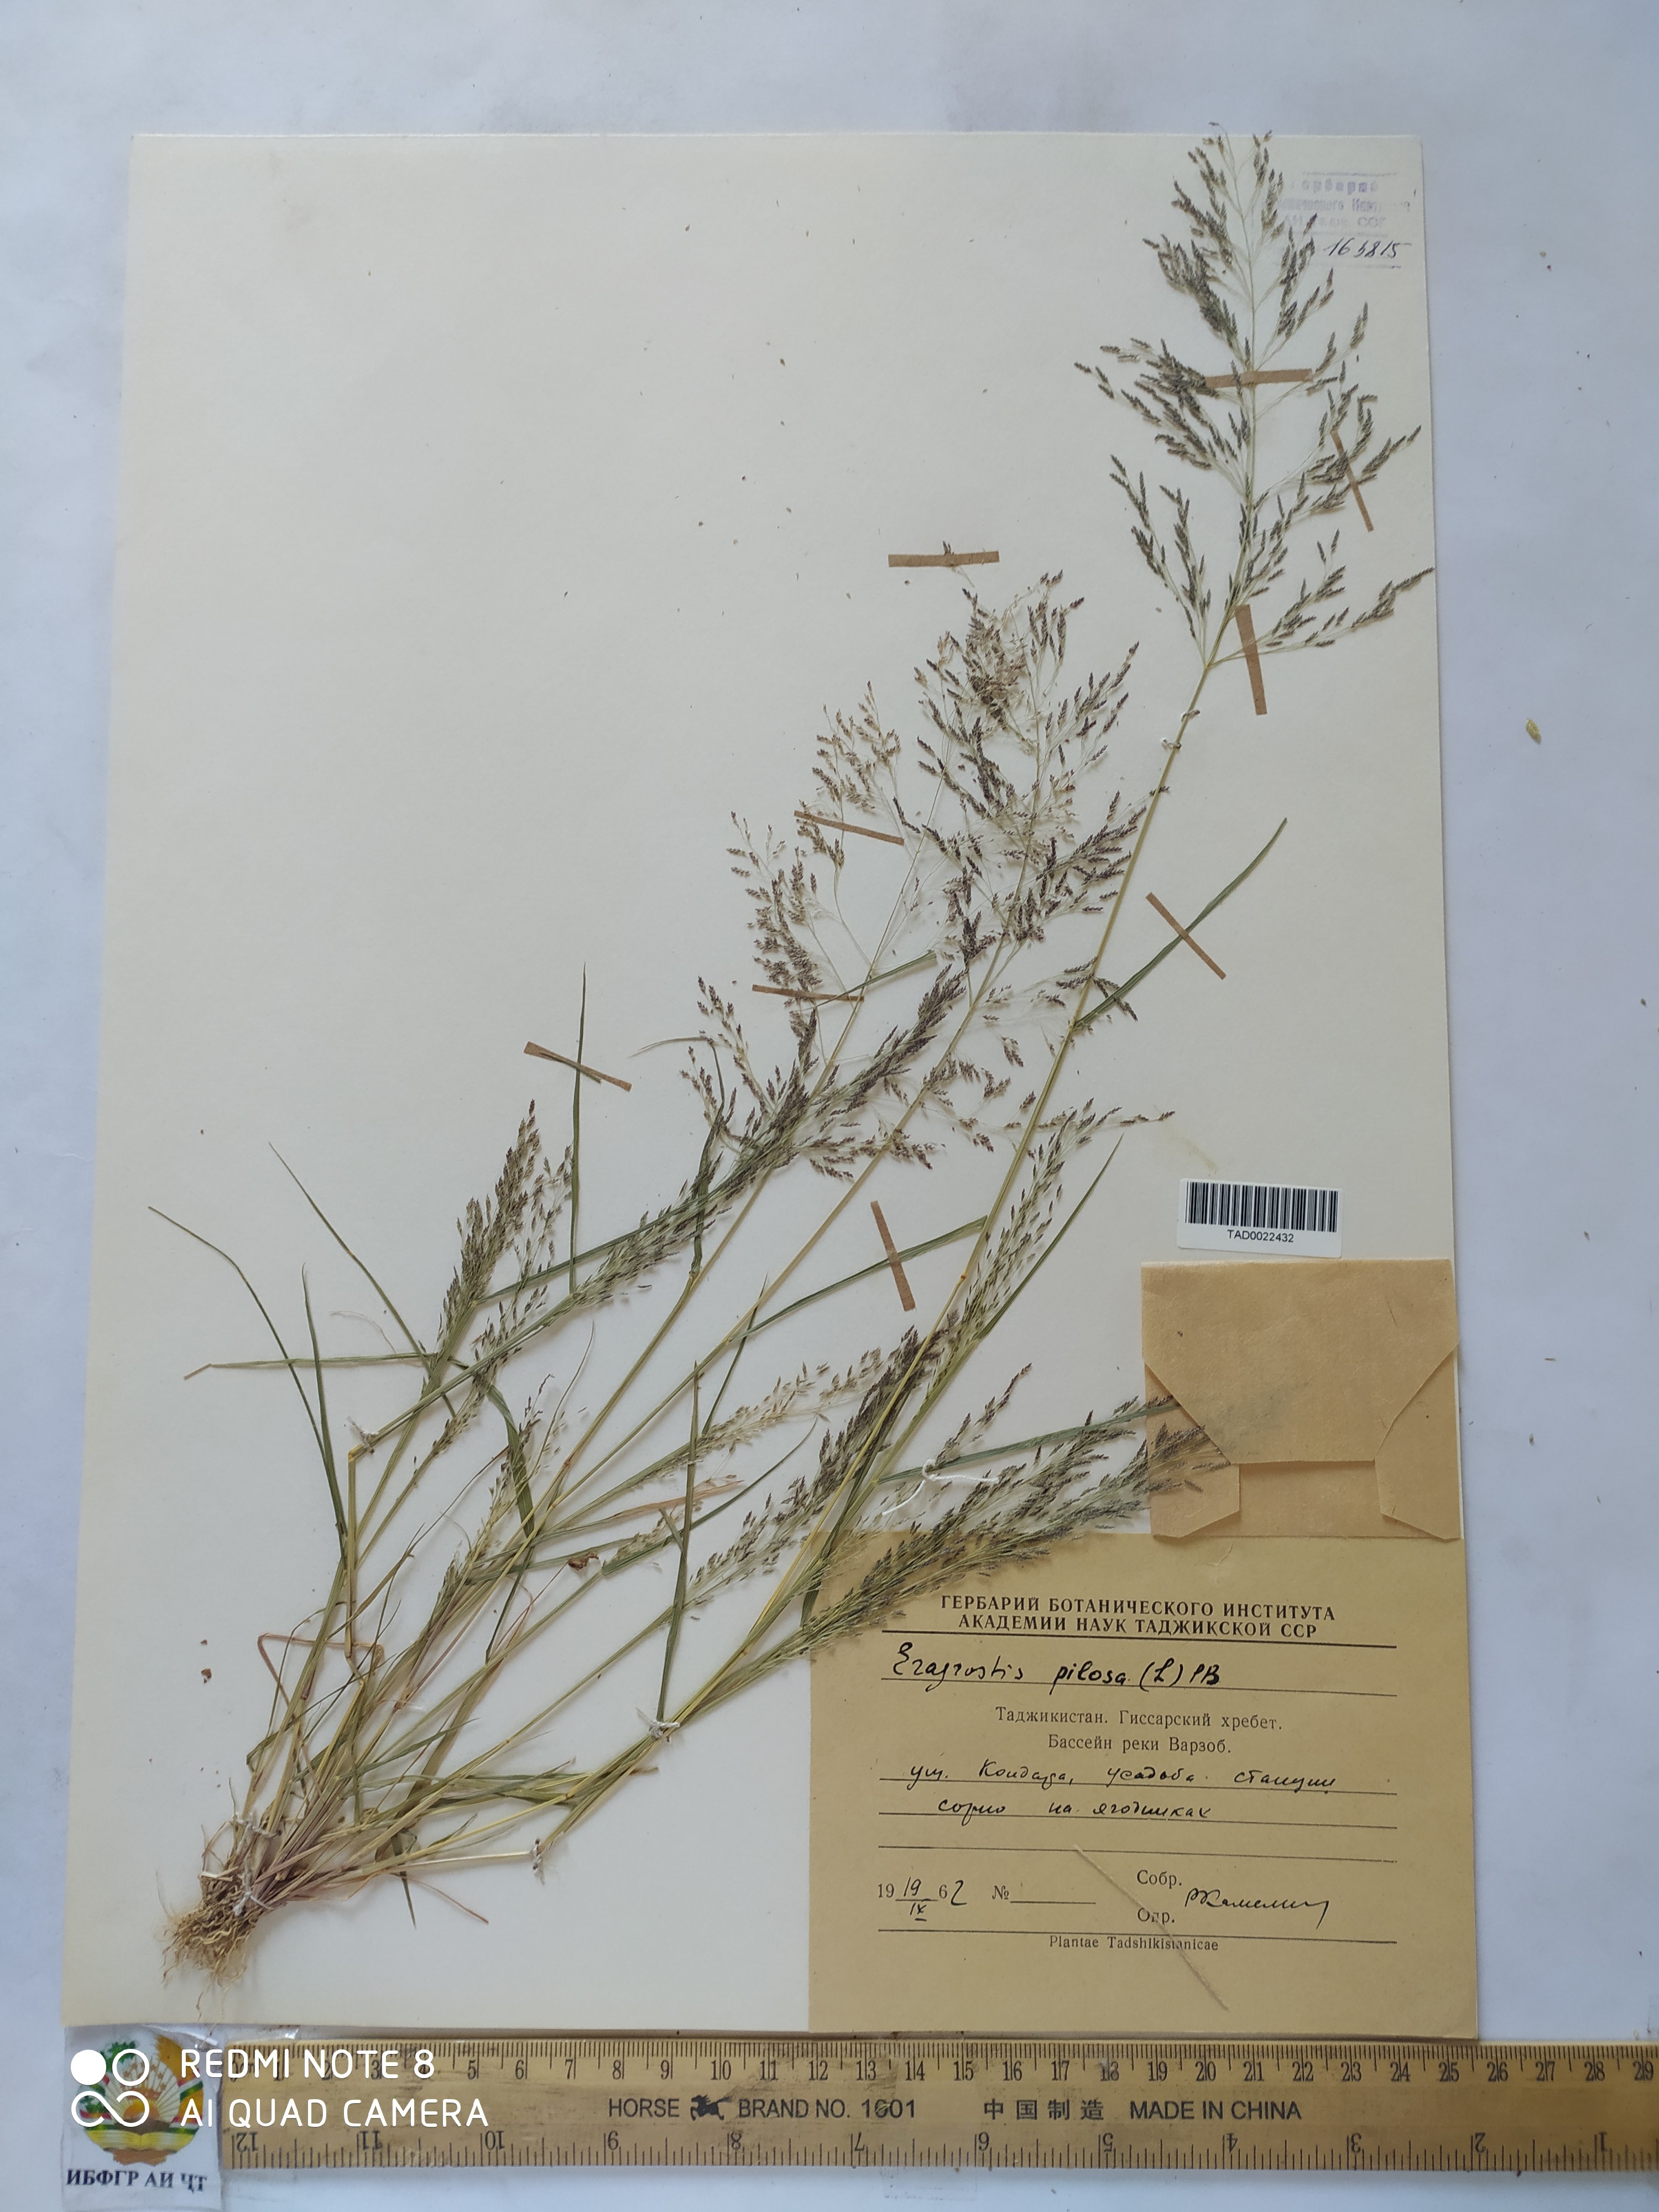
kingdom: Plantae
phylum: Tracheophyta
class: Liliopsida
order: Poales
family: Poaceae
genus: Eragrostis
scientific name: Eragrostis pilosa
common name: Indian lovegrass
